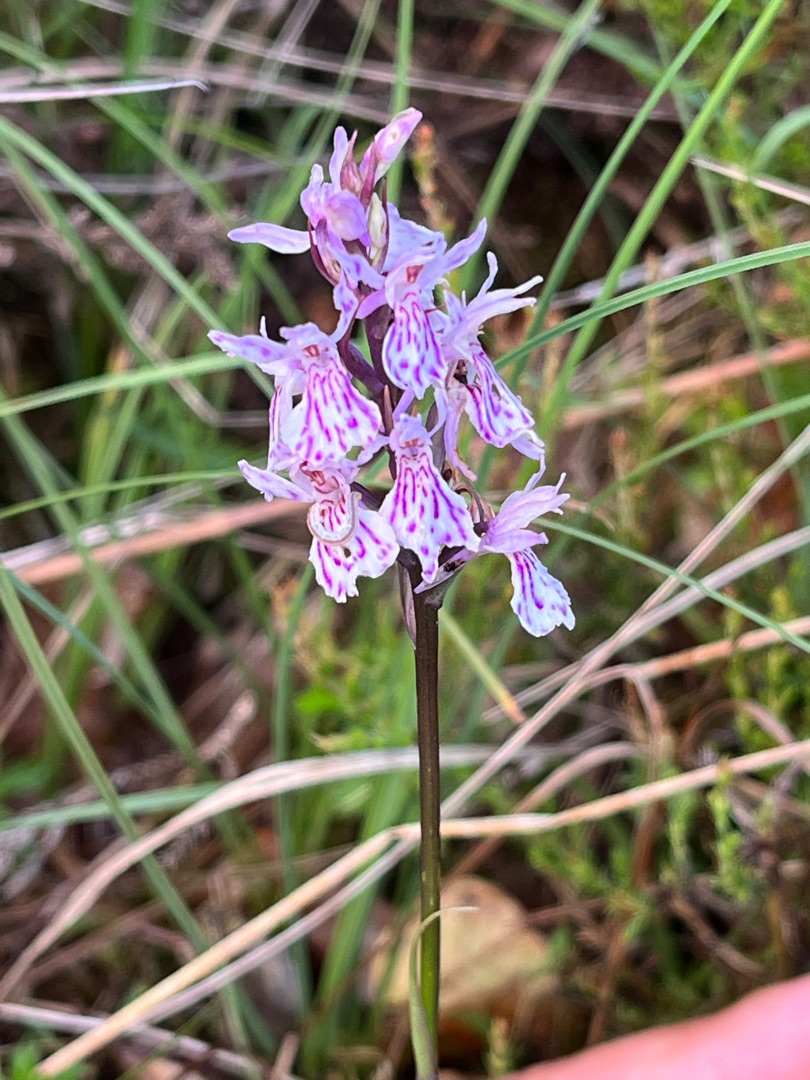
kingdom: Plantae
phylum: Tracheophyta
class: Liliopsida
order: Asparagales
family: Orchidaceae
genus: Dactylorhiza
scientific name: Dactylorhiza maculata
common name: Plettet gøgeurt
